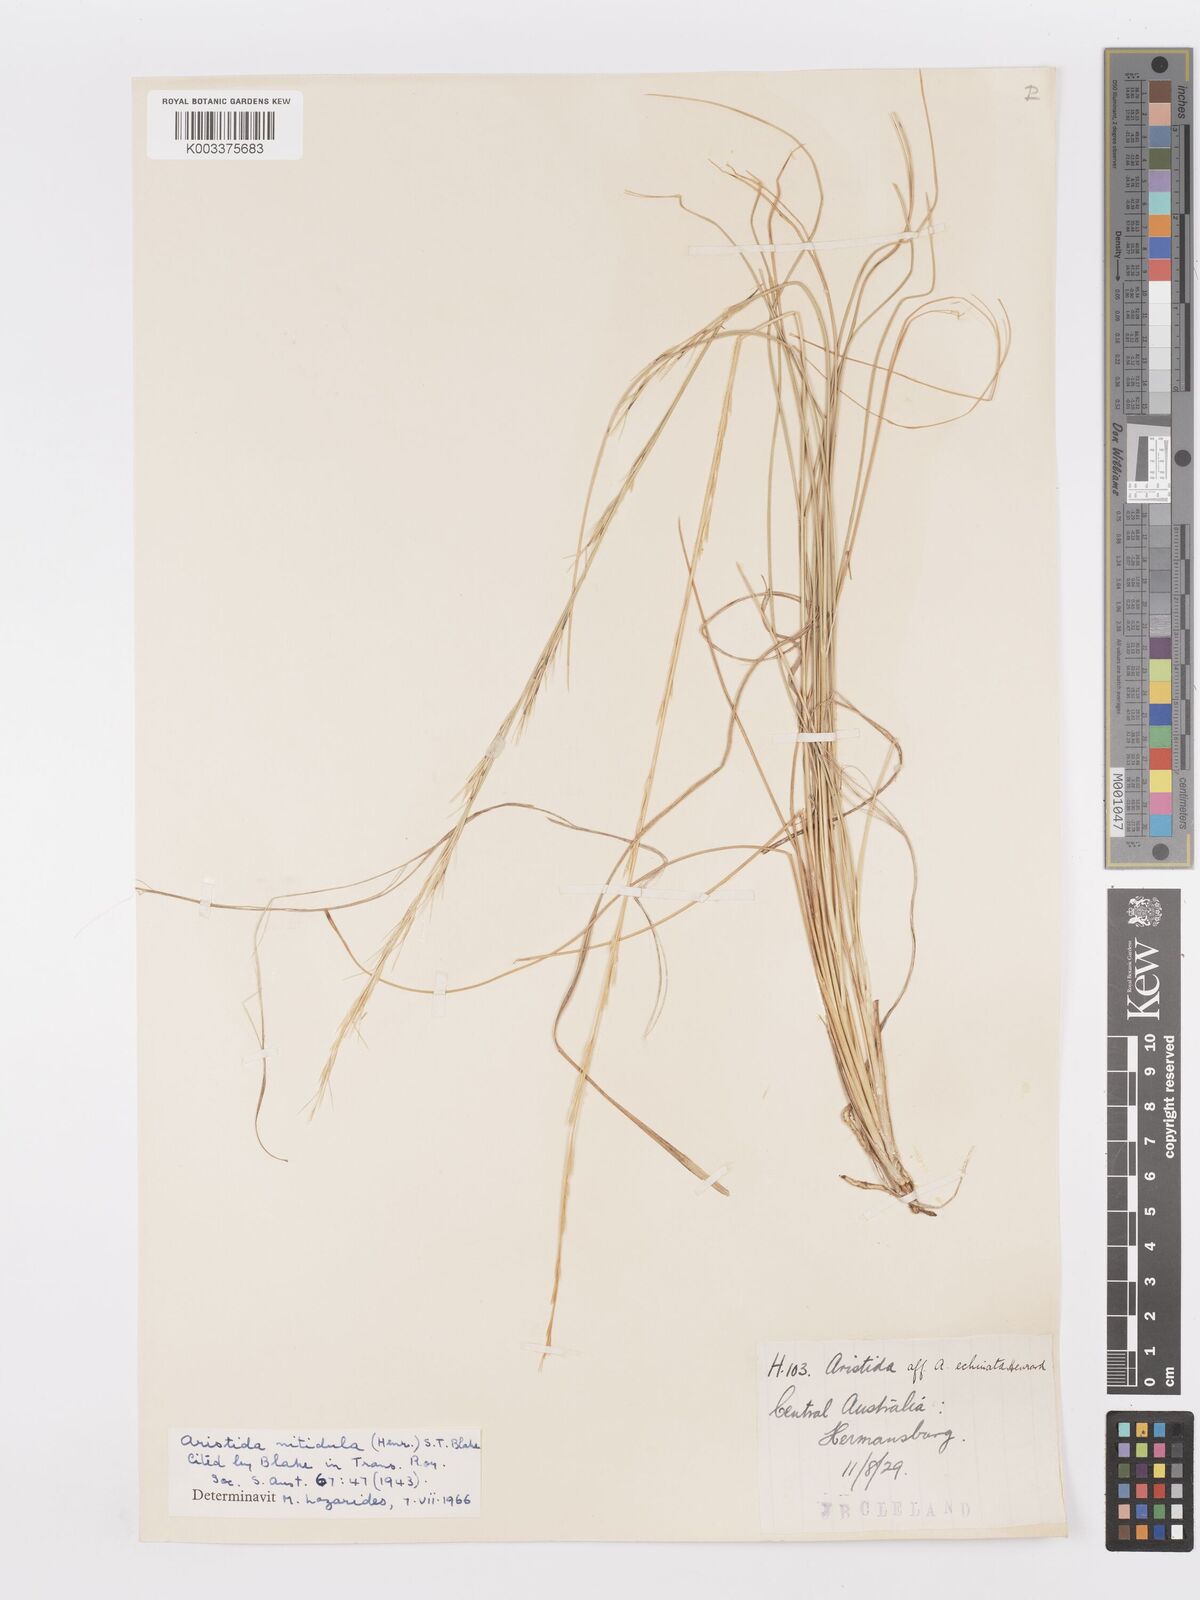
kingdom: Plantae
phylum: Tracheophyta
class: Liliopsida
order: Poales
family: Poaceae
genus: Aristida
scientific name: Aristida nitidula
